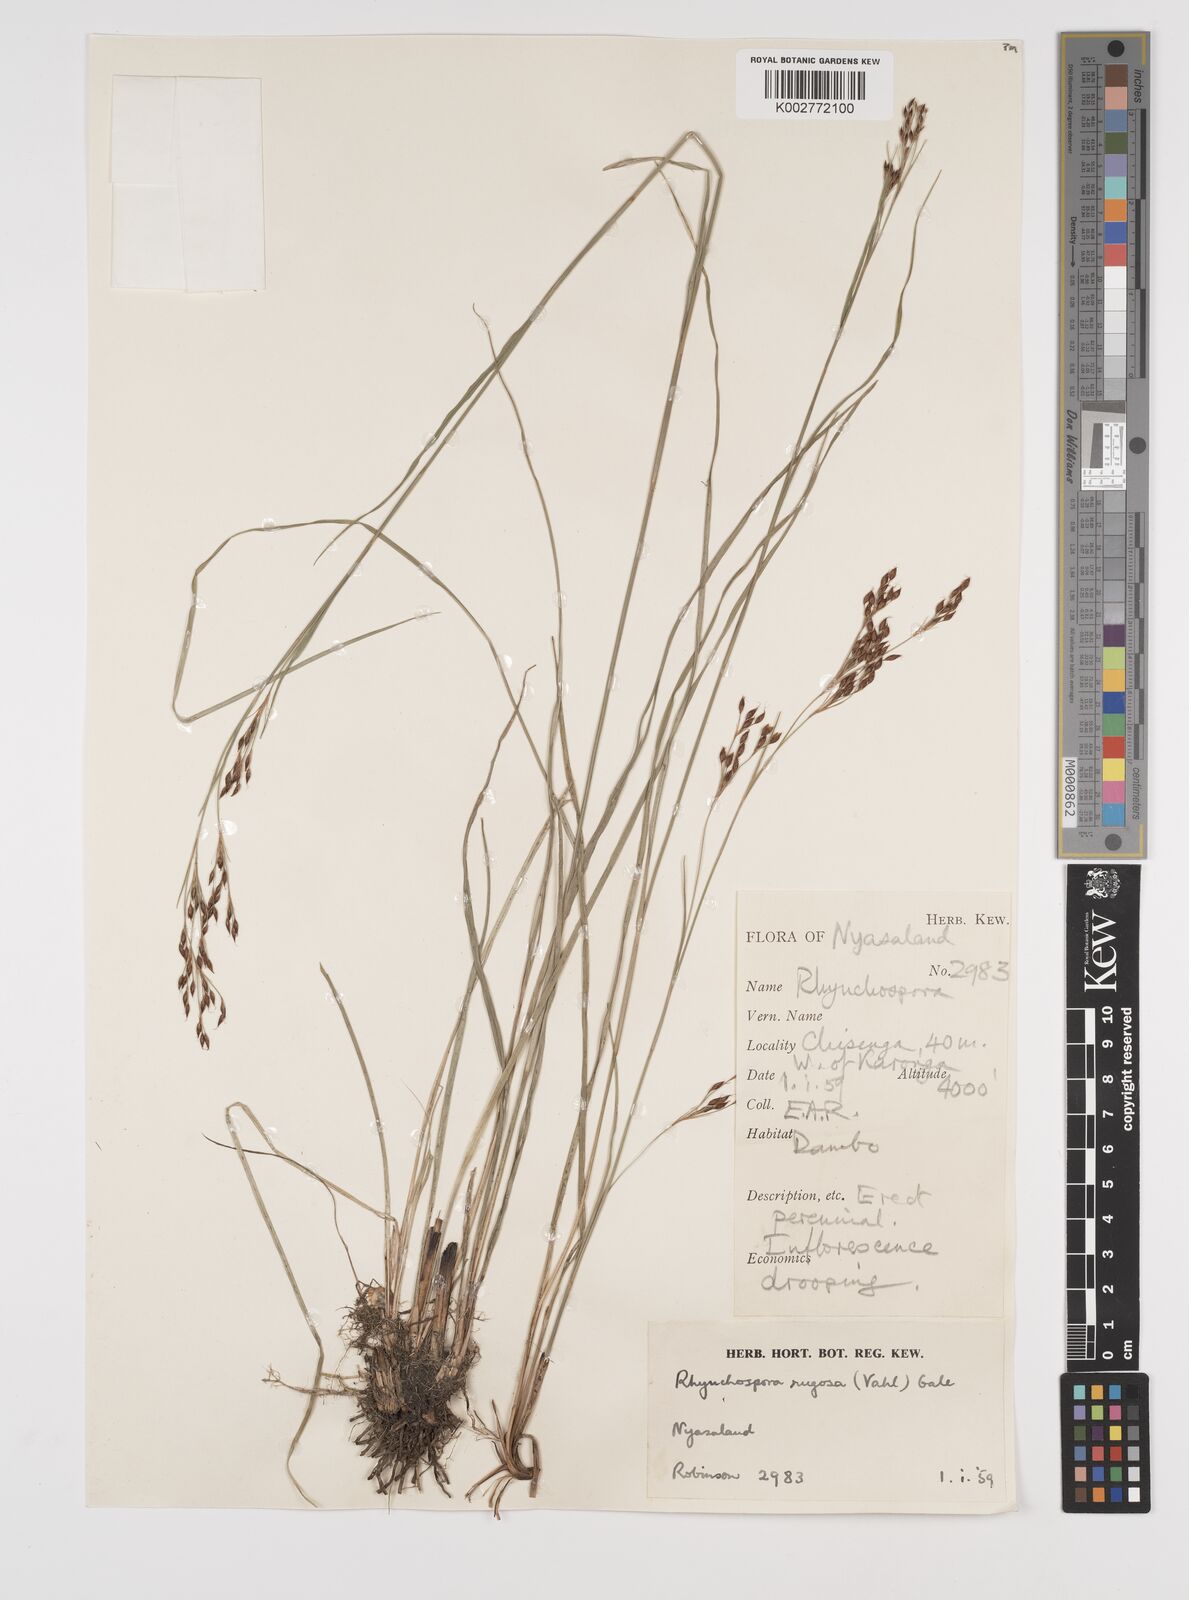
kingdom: Plantae
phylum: Tracheophyta
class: Liliopsida
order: Poales
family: Cyperaceae
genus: Rhynchospora
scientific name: Rhynchospora rugosa
